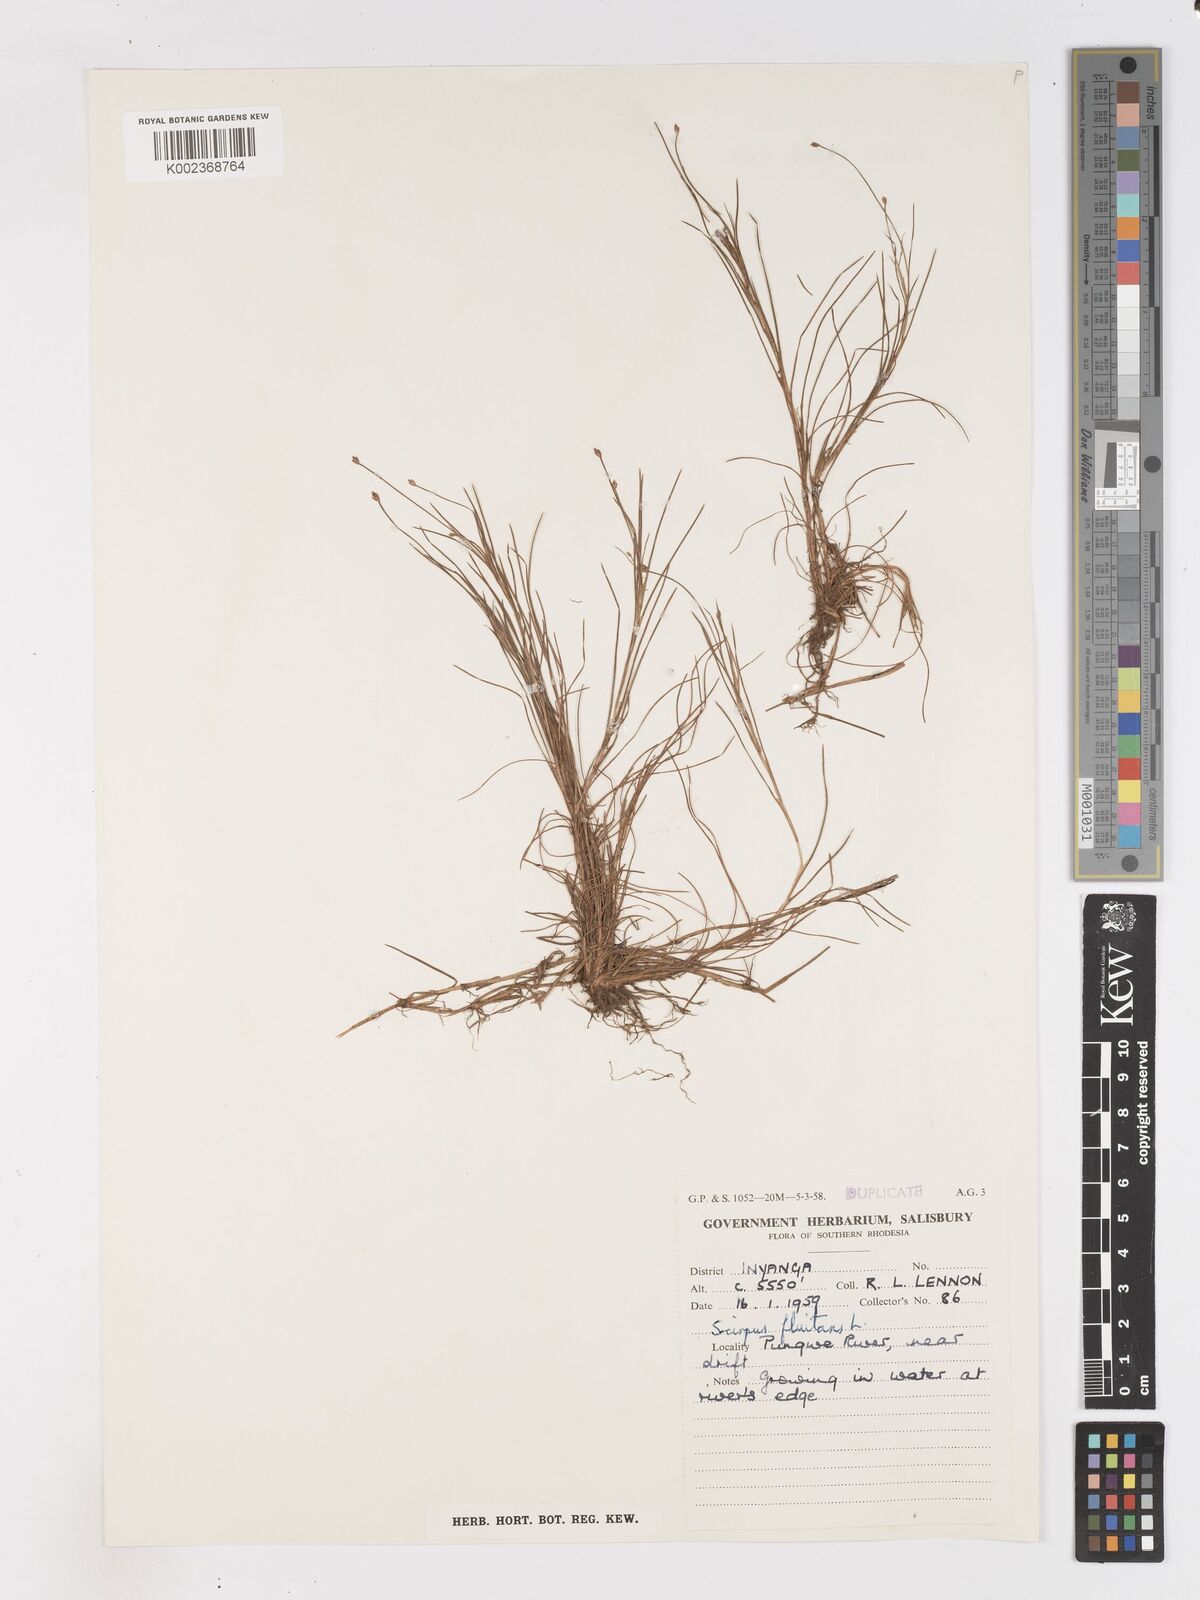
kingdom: Plantae
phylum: Tracheophyta
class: Liliopsida
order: Poales
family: Cyperaceae
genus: Isolepis
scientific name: Isolepis fluitans
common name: Floating club-rush
